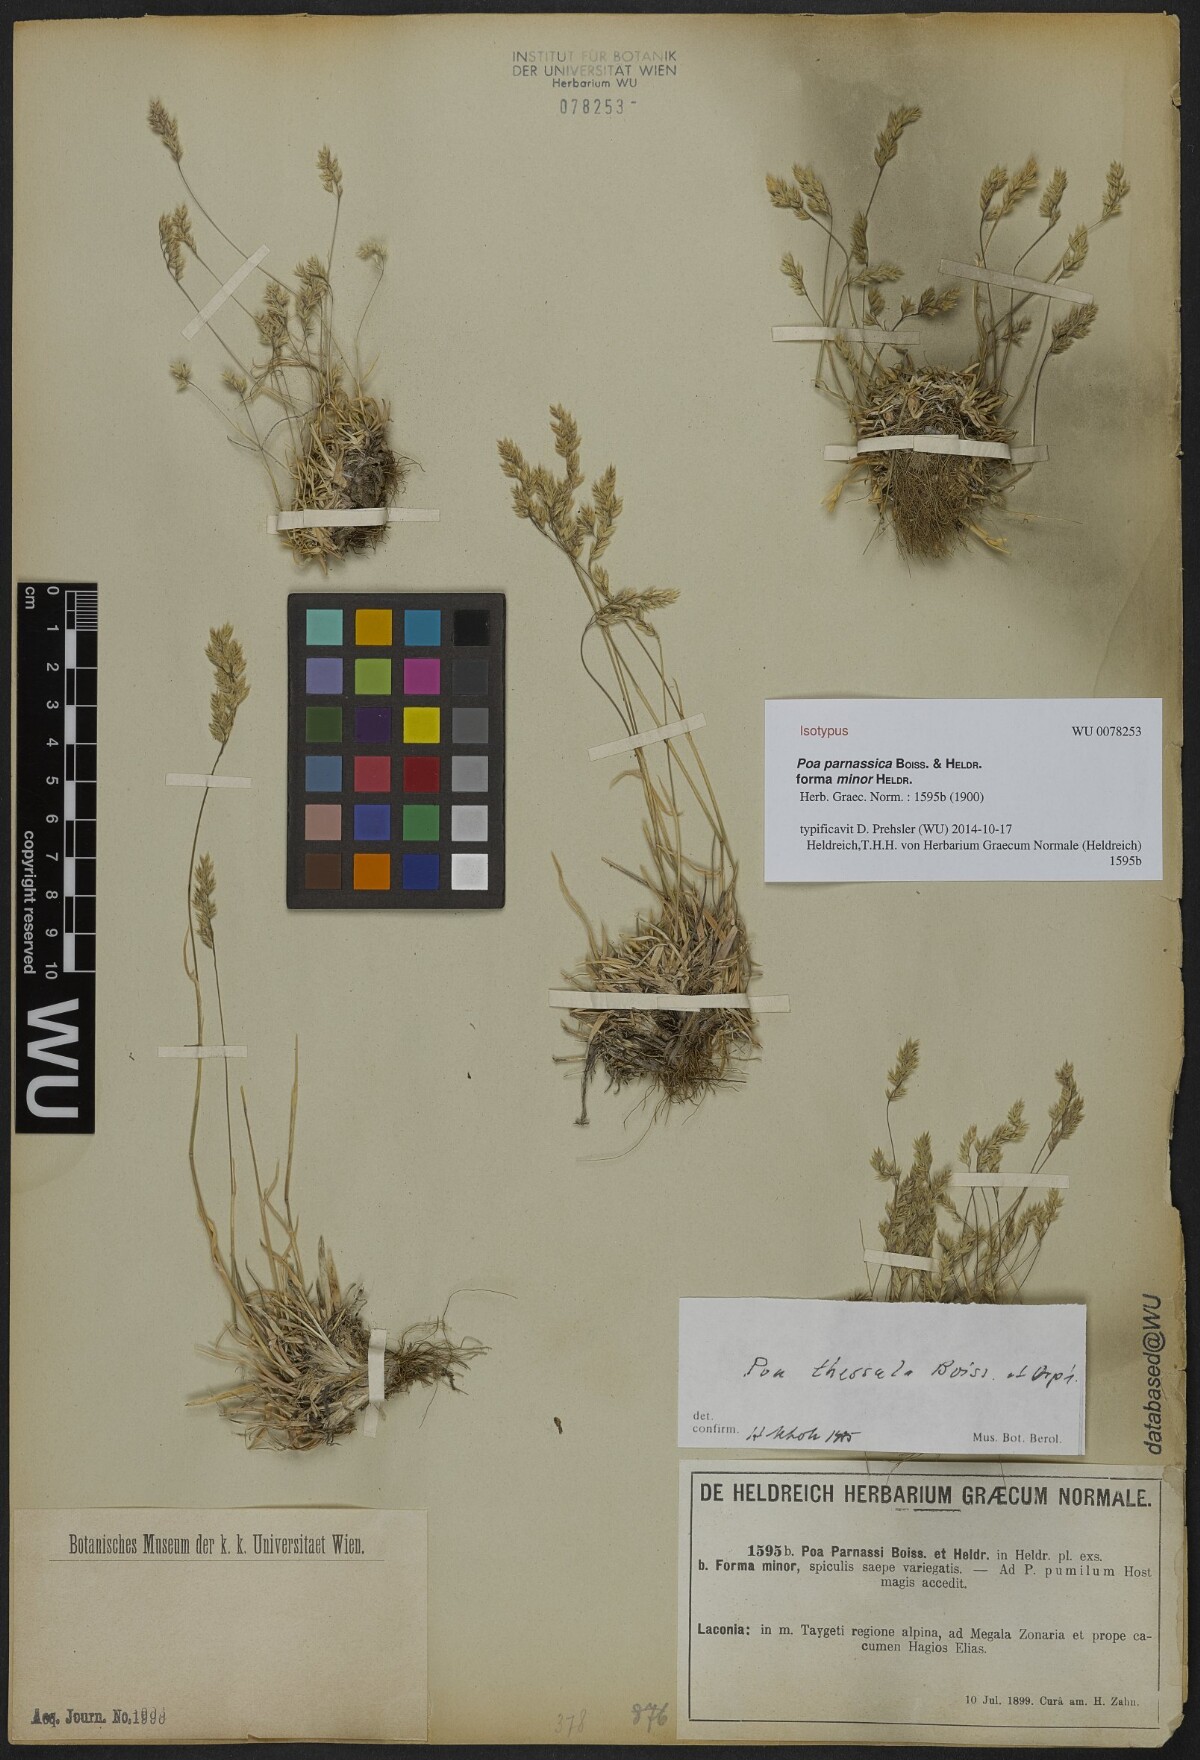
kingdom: Plantae
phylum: Tracheophyta
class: Liliopsida
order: Poales
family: Poaceae
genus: Poa
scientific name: Poa alpina
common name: Alpine bluegrass
